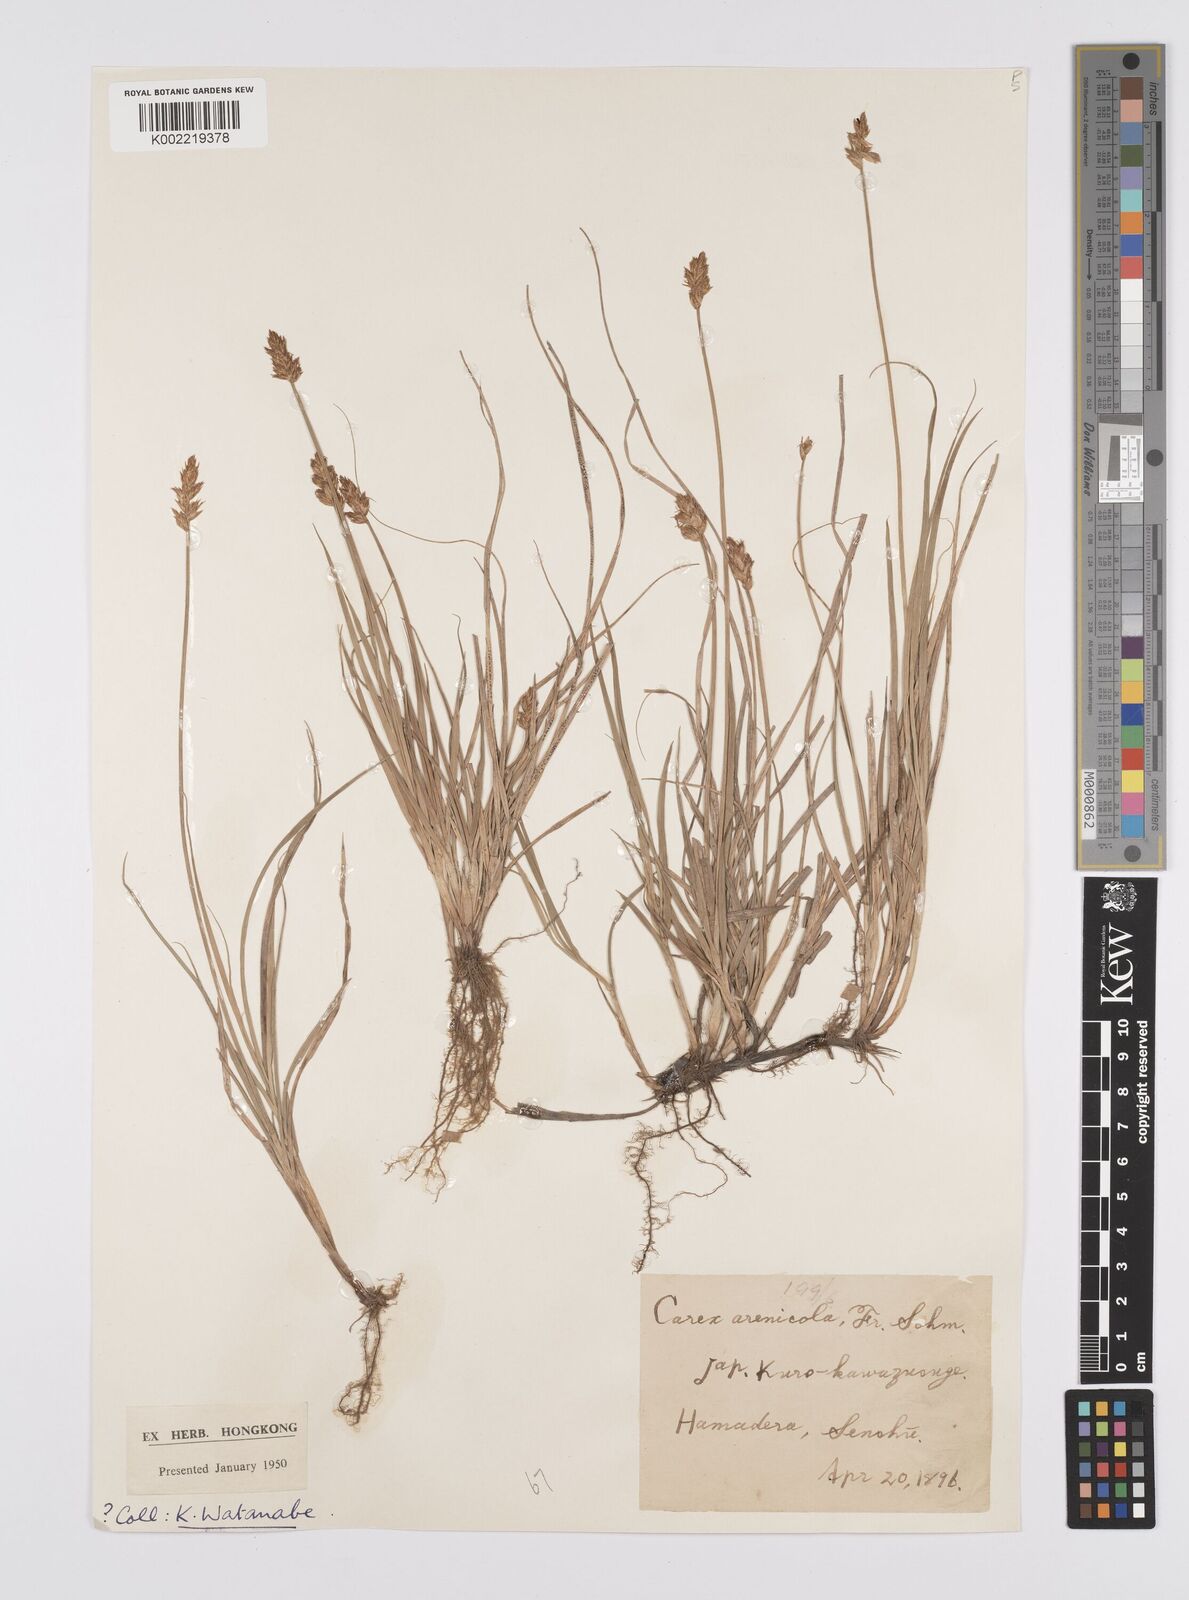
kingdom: Plantae
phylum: Tracheophyta
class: Liliopsida
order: Poales
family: Cyperaceae
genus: Carex
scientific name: Carex arenicola
